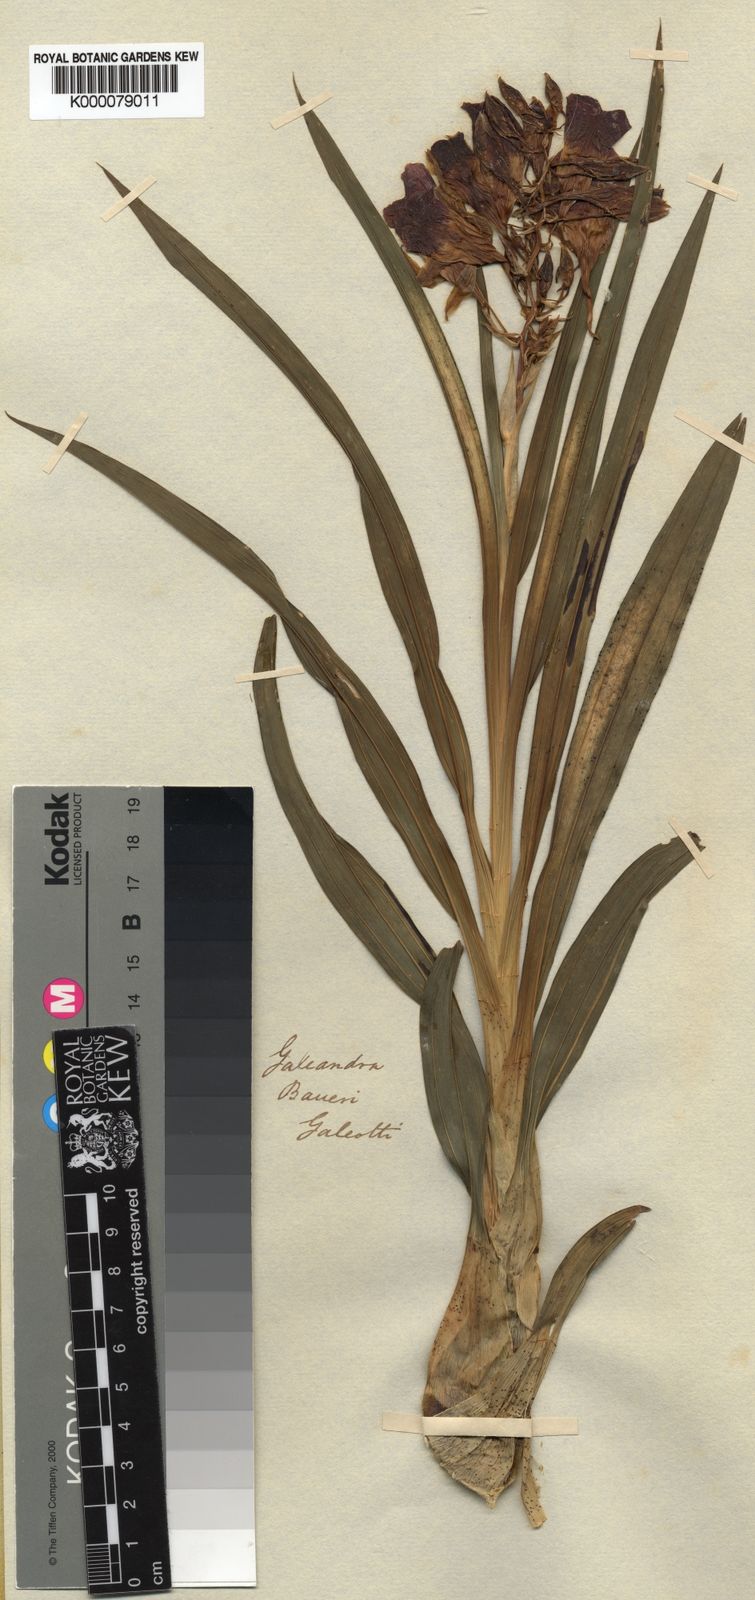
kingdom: Plantae
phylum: Tracheophyta
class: Liliopsida
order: Asparagales
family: Orchidaceae
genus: Galeandra
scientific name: Galeandra batemanii
